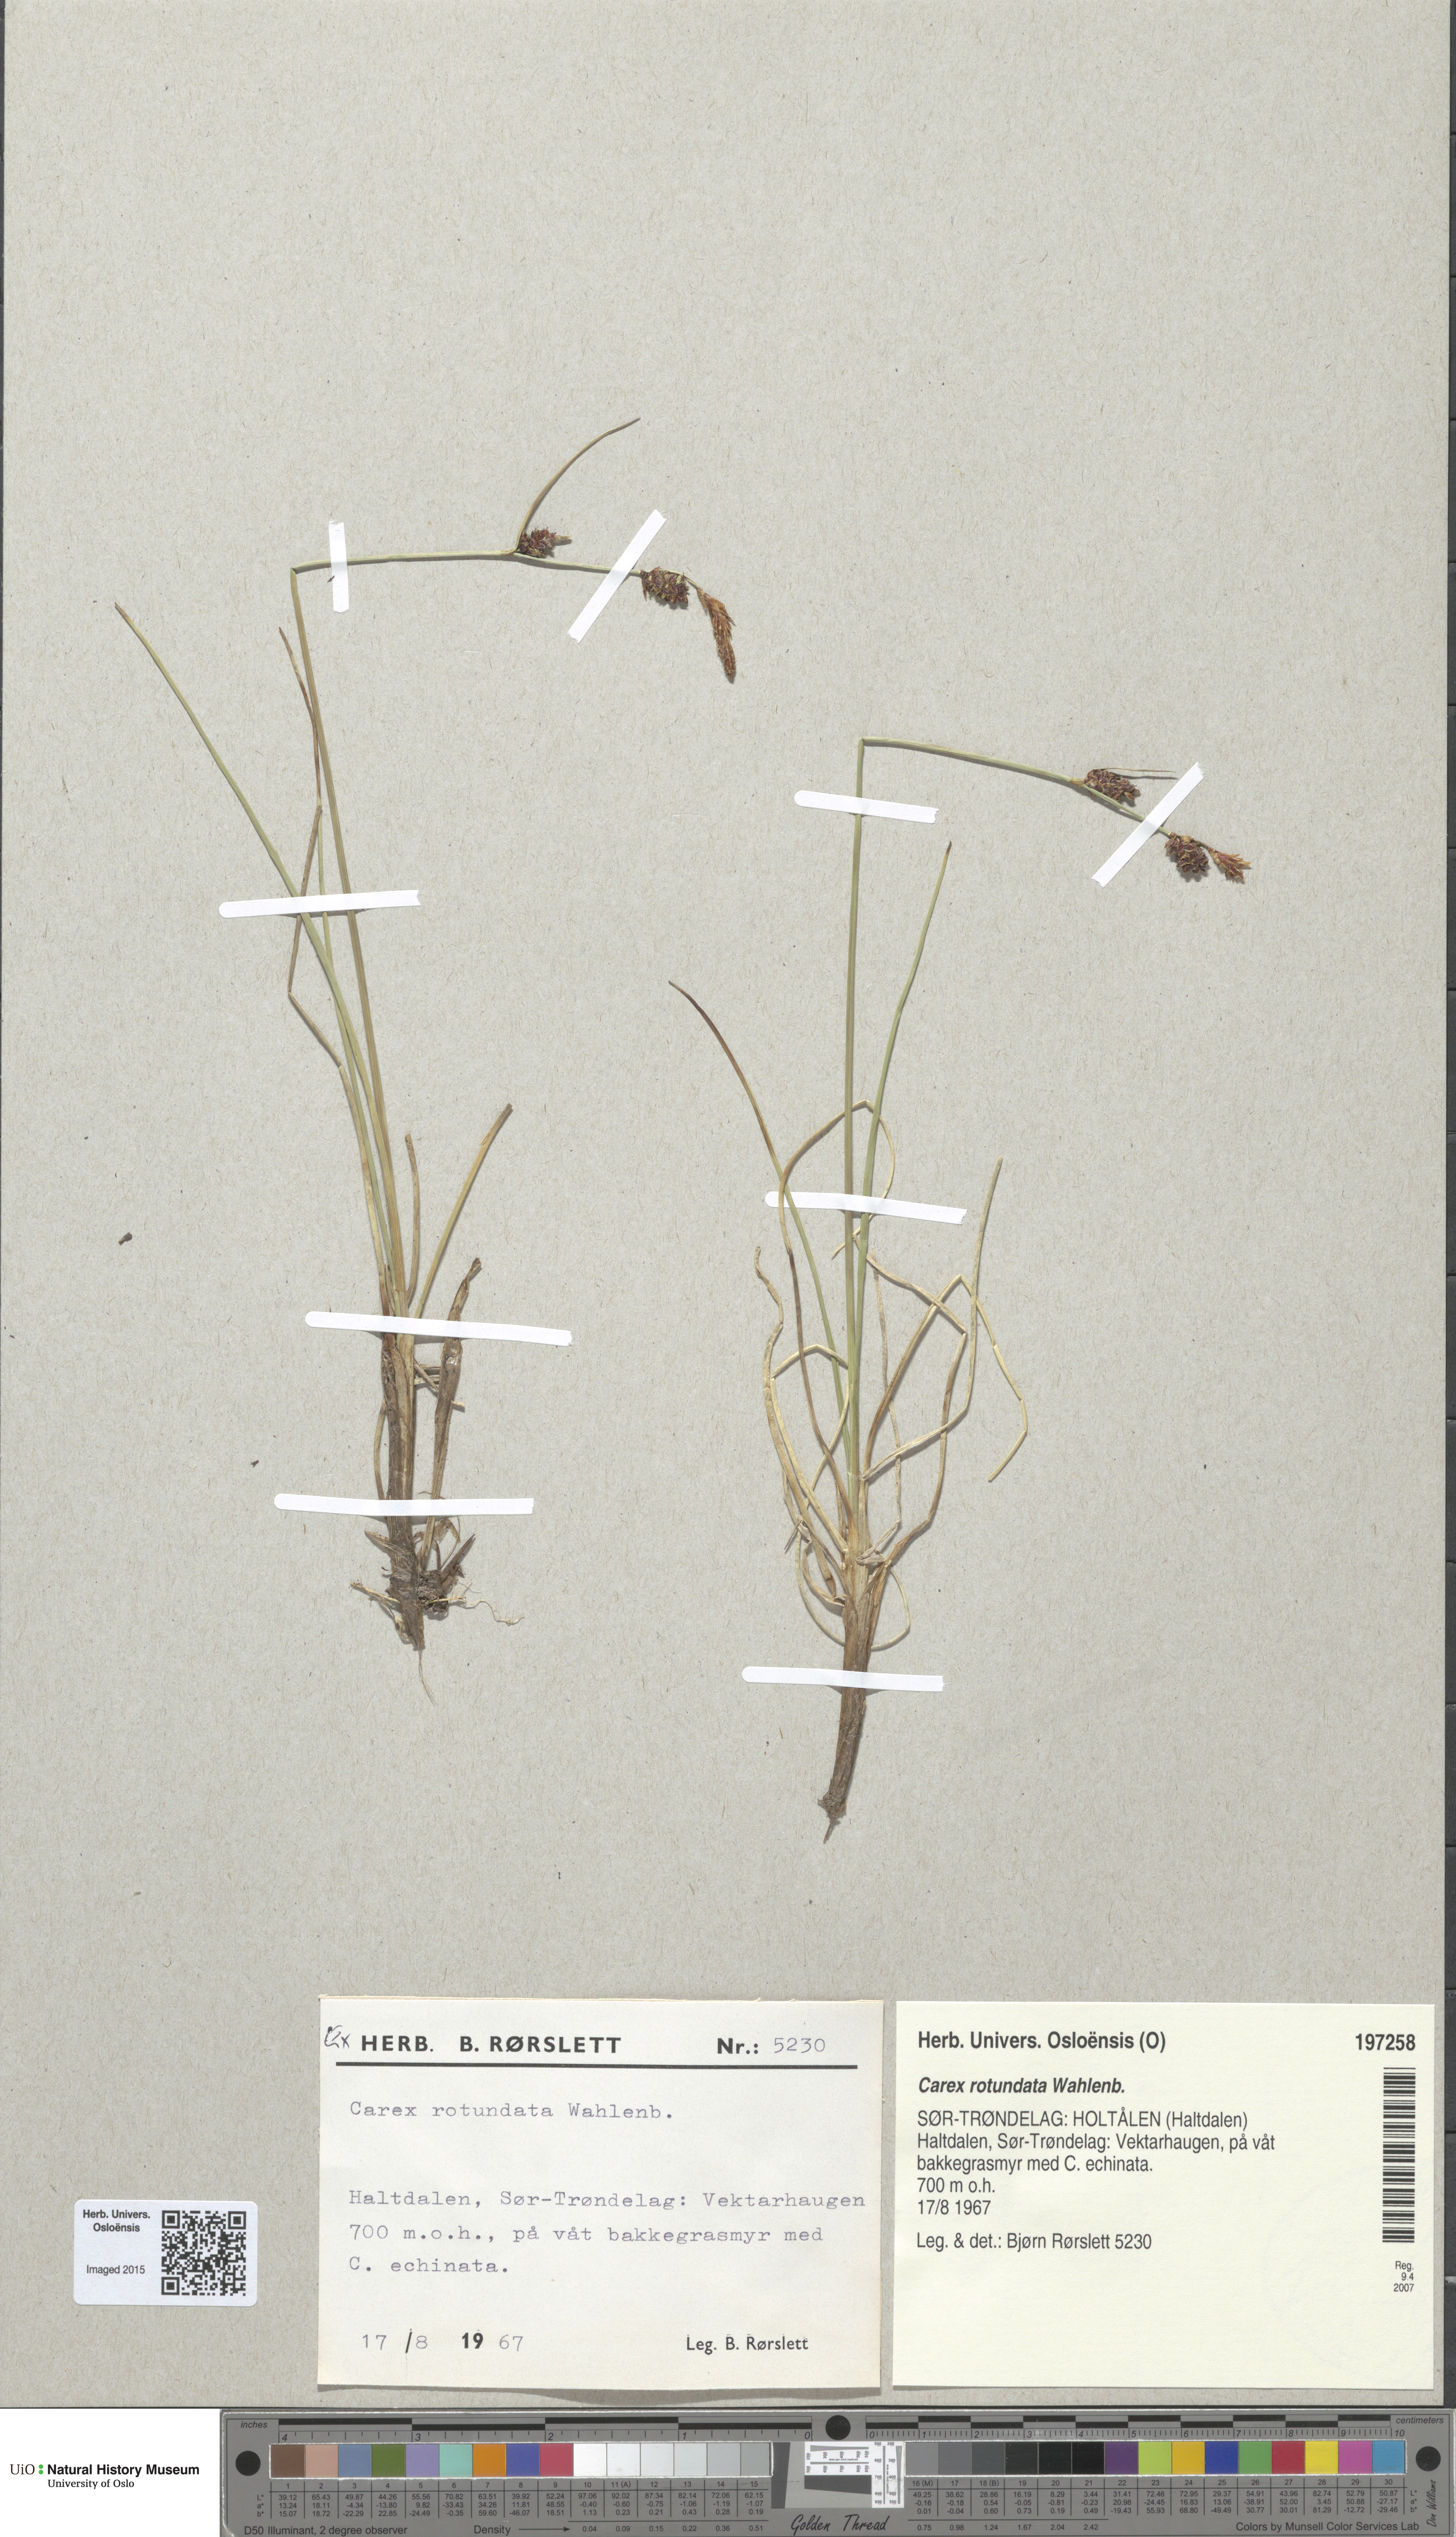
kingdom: Plantae
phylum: Tracheophyta
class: Liliopsida
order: Poales
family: Cyperaceae
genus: Carex
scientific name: Carex rotundata
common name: Round-fruited sedge
